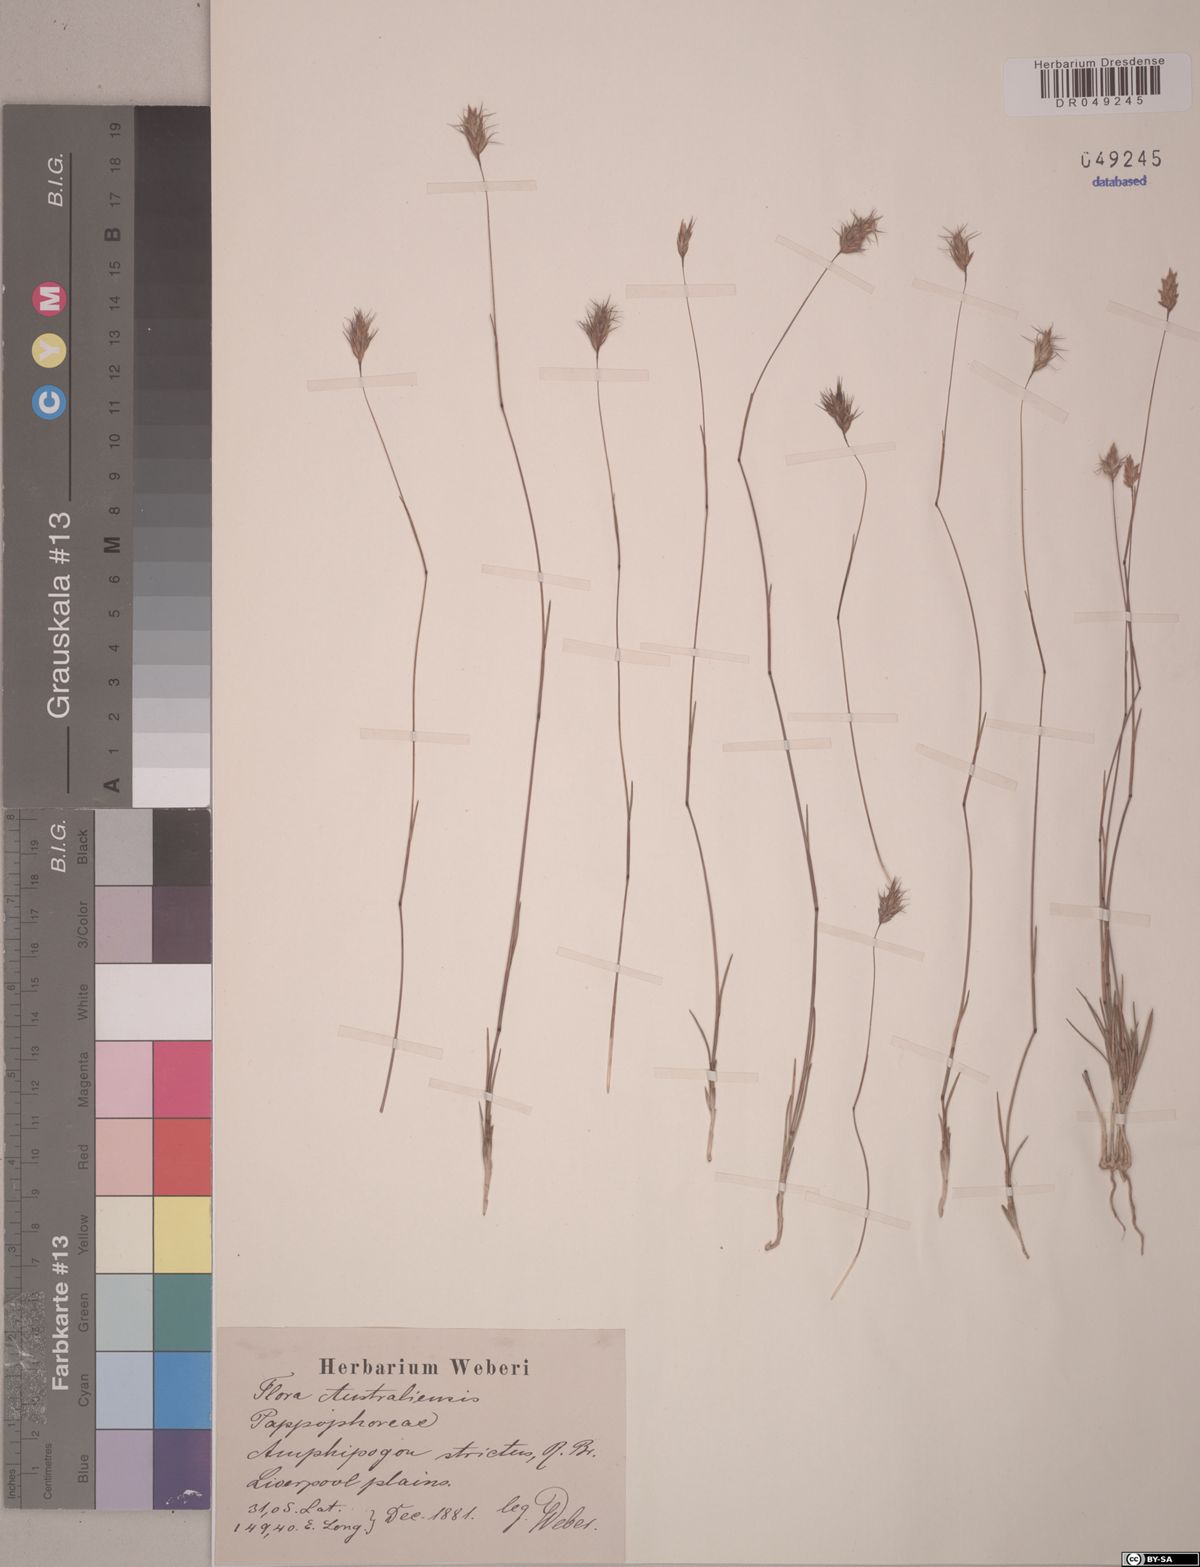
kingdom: Plantae
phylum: Tracheophyta
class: Liliopsida
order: Poales
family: Poaceae
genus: Amphipogon
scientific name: Amphipogon strictus
